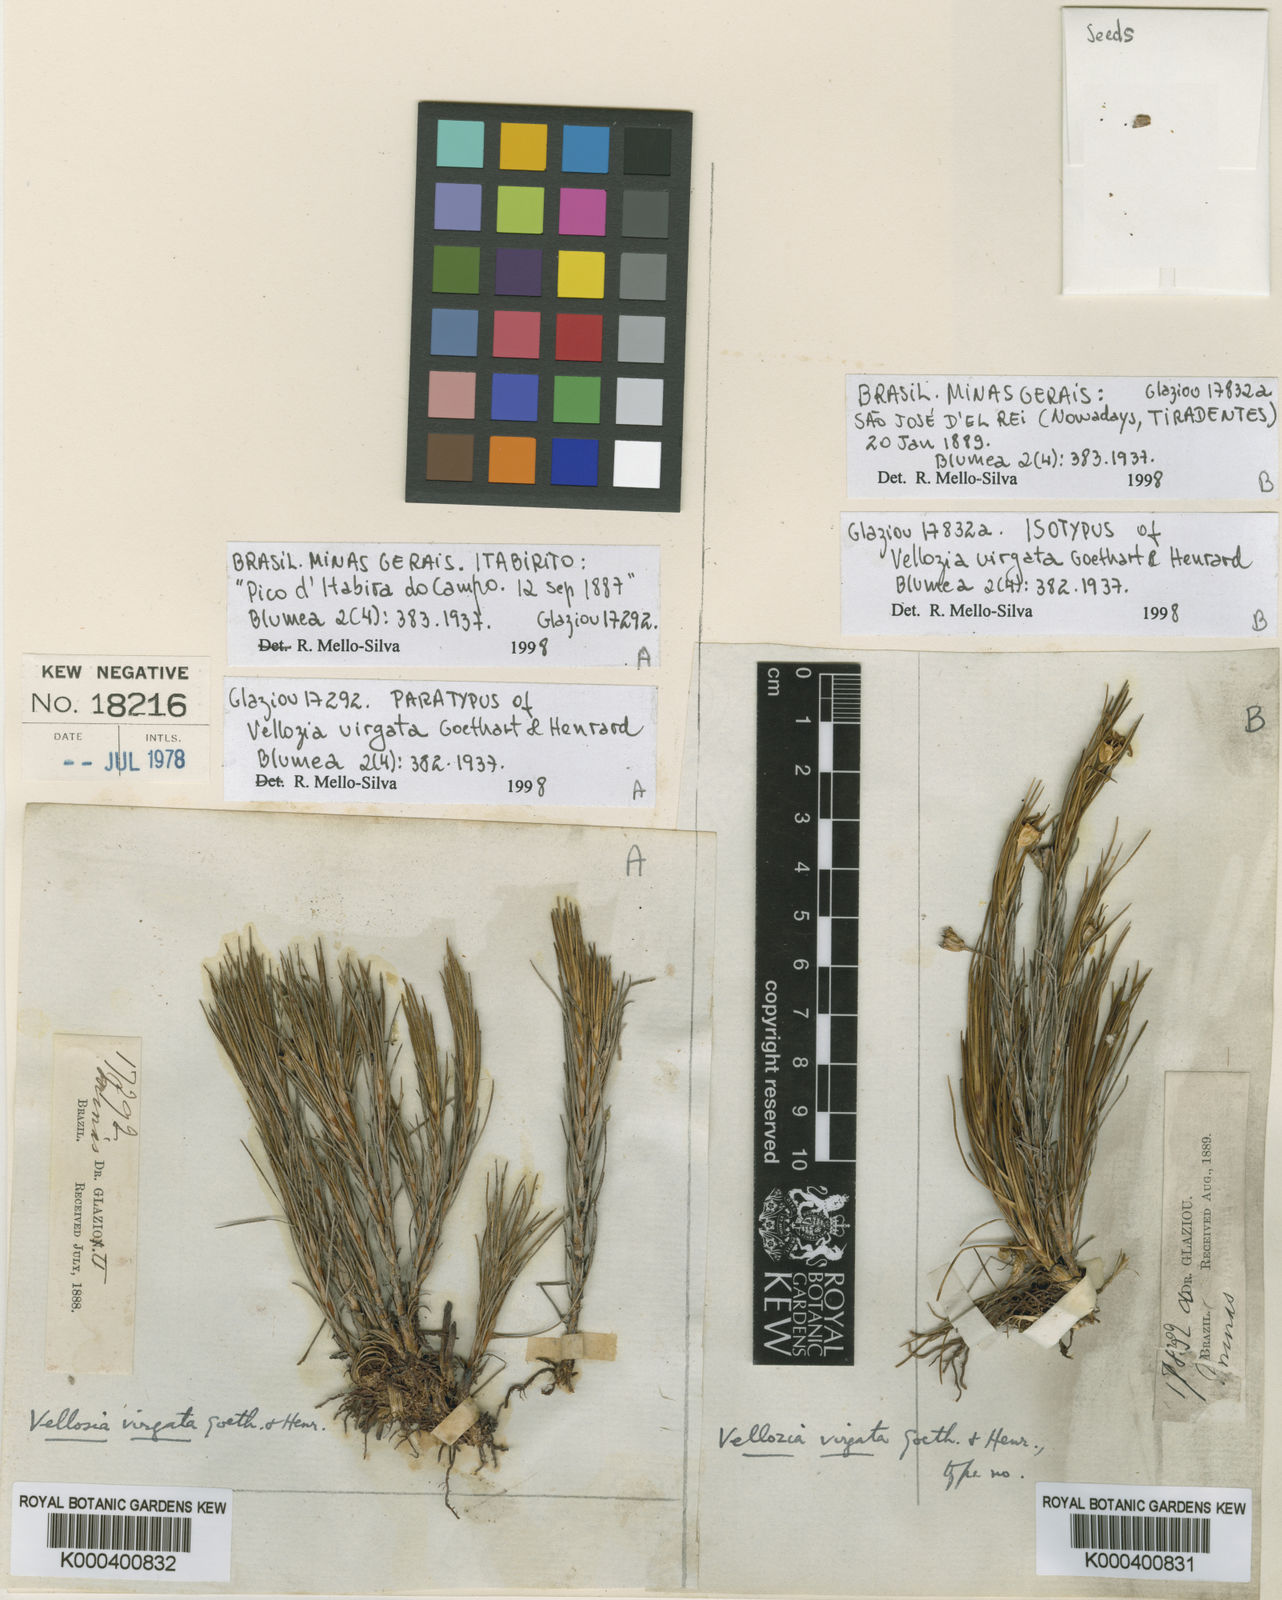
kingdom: Plantae
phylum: Tracheophyta
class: Liliopsida
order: Pandanales
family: Velloziaceae
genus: Vellozia
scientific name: Vellozia linearis
